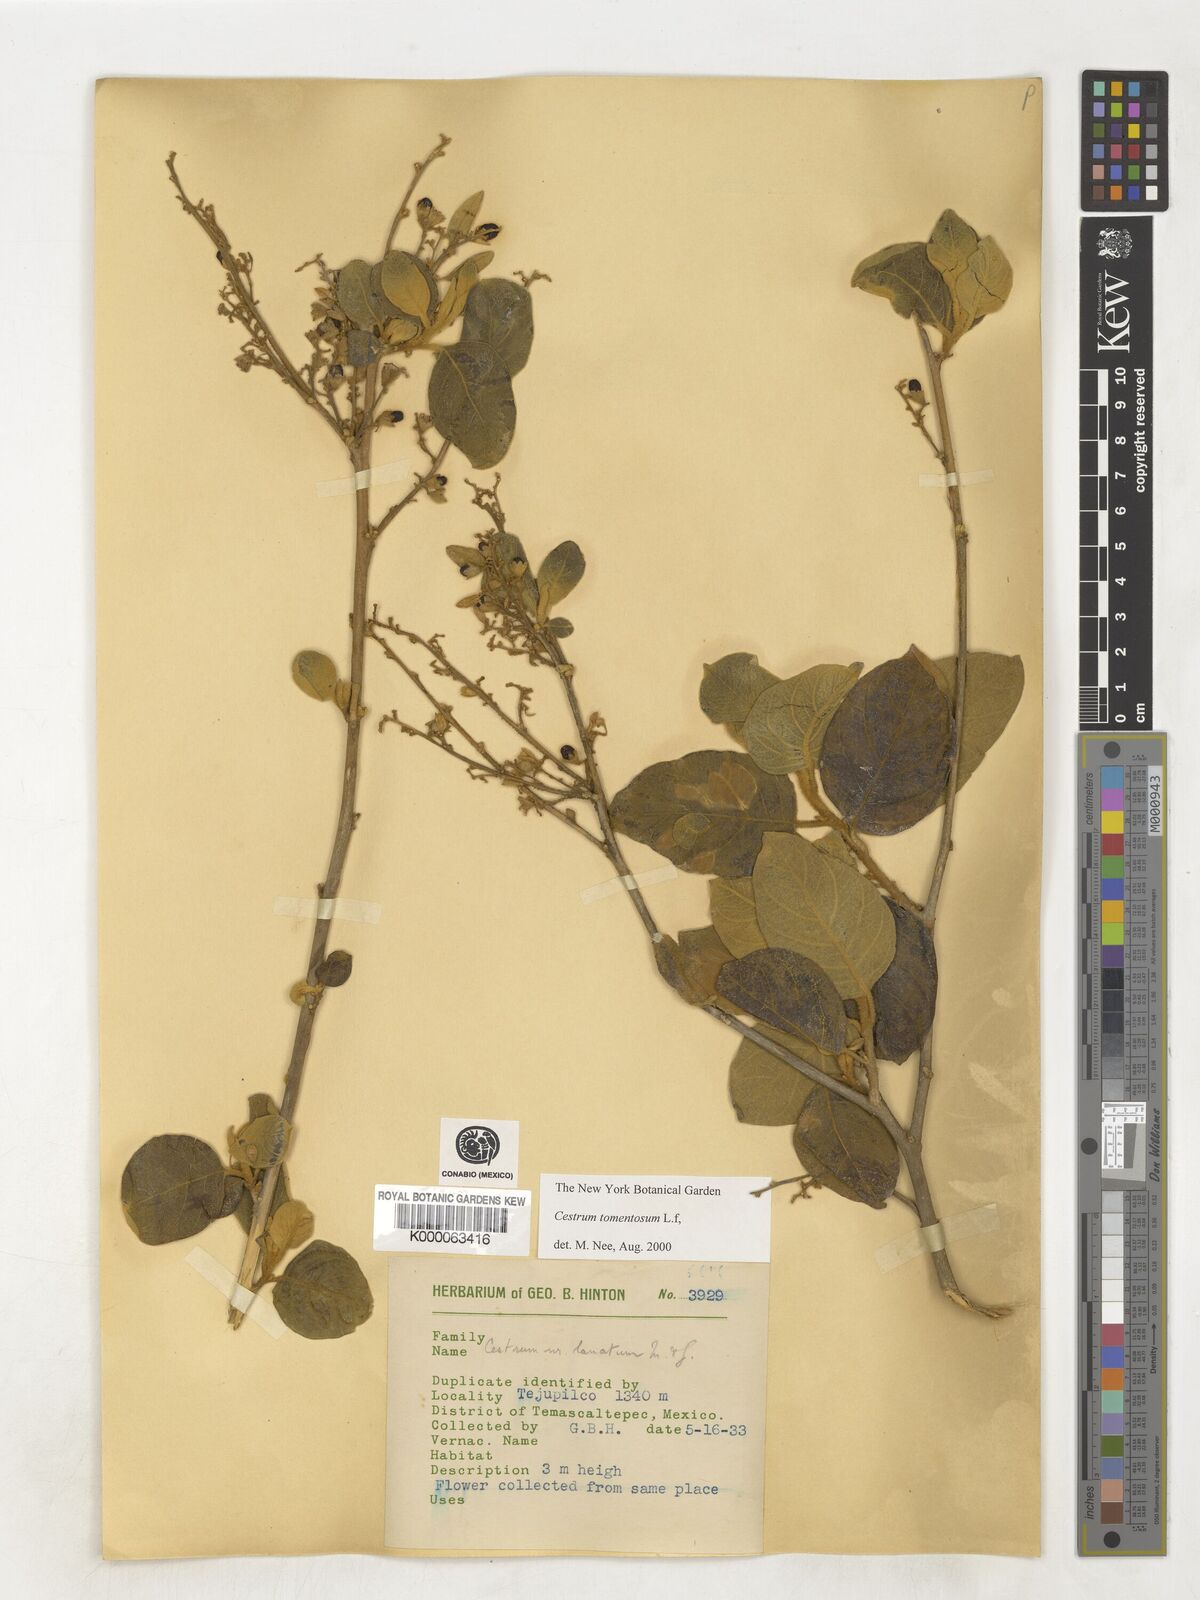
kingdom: Plantae
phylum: Tracheophyta
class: Magnoliopsida
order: Solanales
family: Solanaceae
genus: Cestrum
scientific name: Cestrum tomentosum
